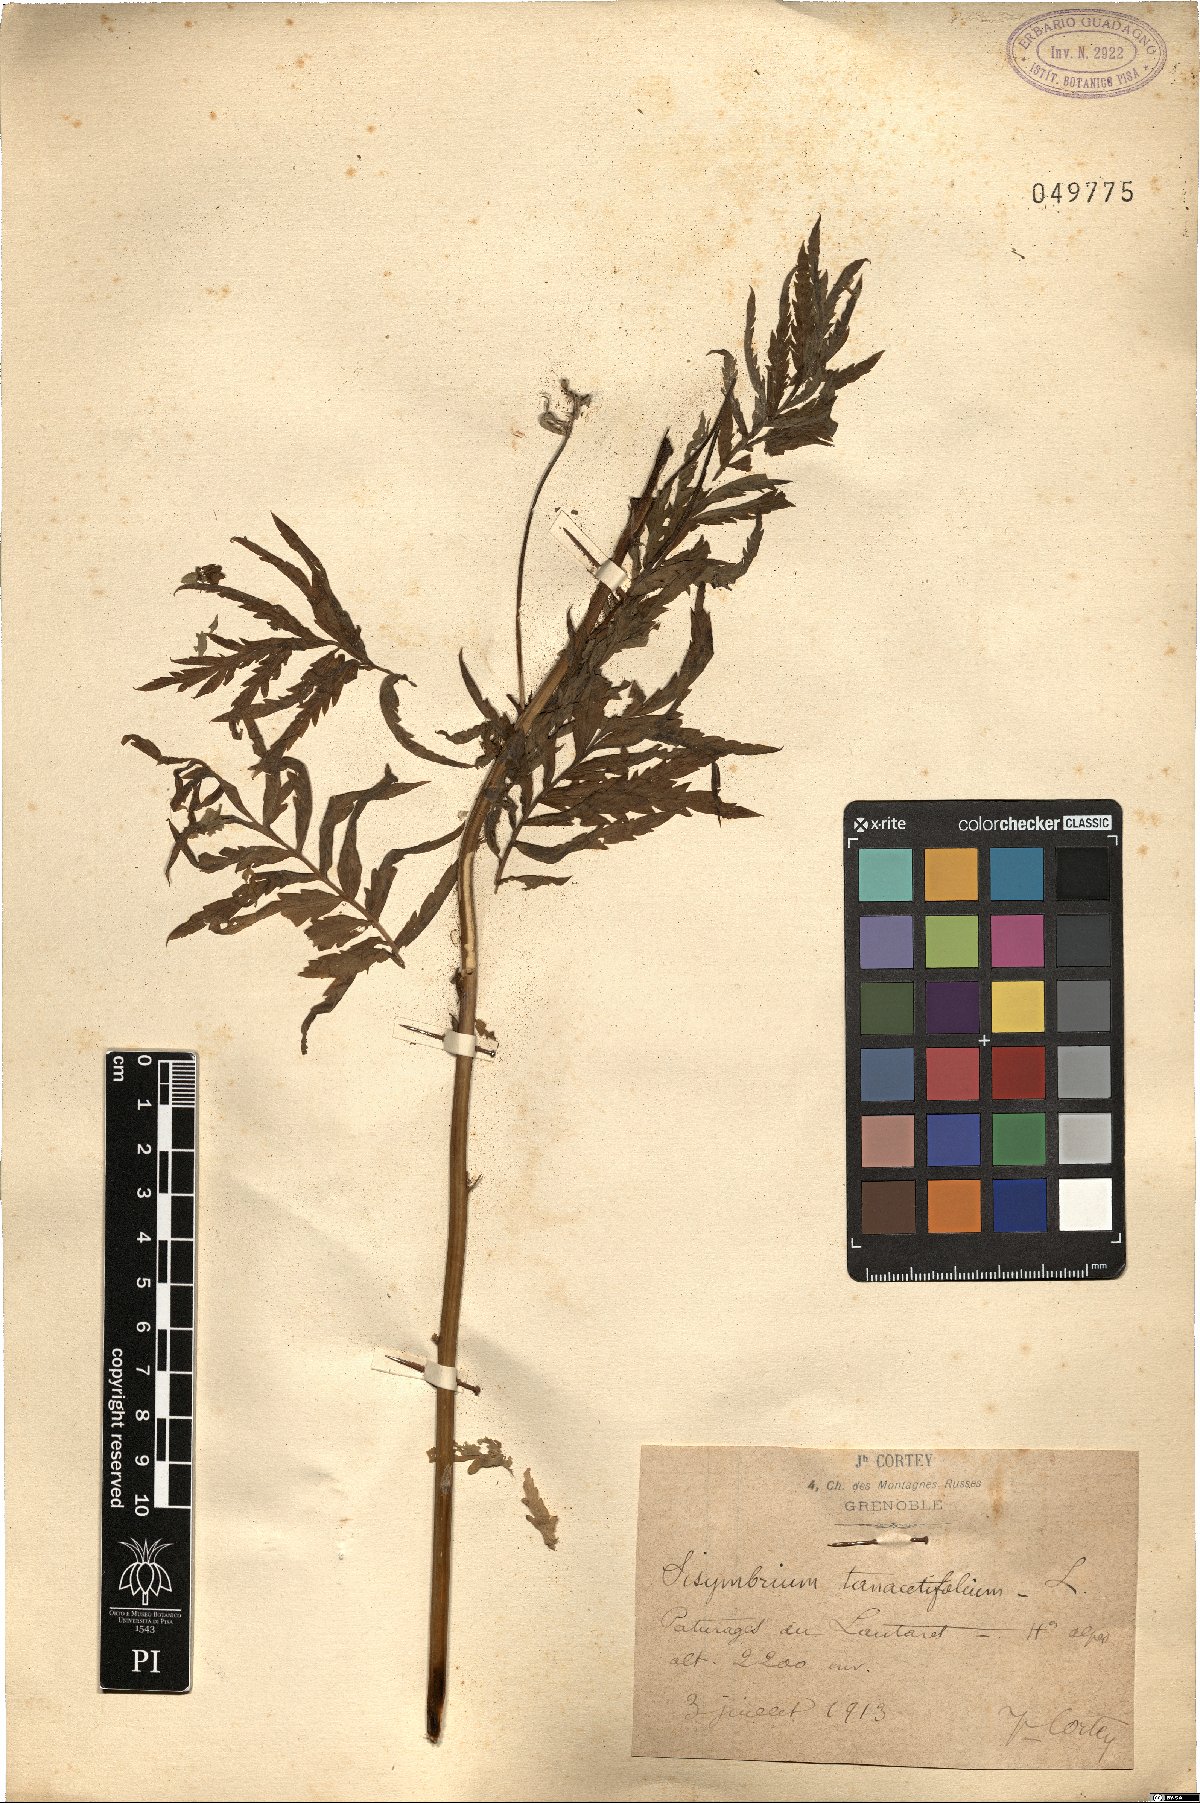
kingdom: Plantae
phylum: Tracheophyta
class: Magnoliopsida
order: Brassicales
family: Brassicaceae
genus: Descurainia
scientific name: Descurainia tanacetifolia
